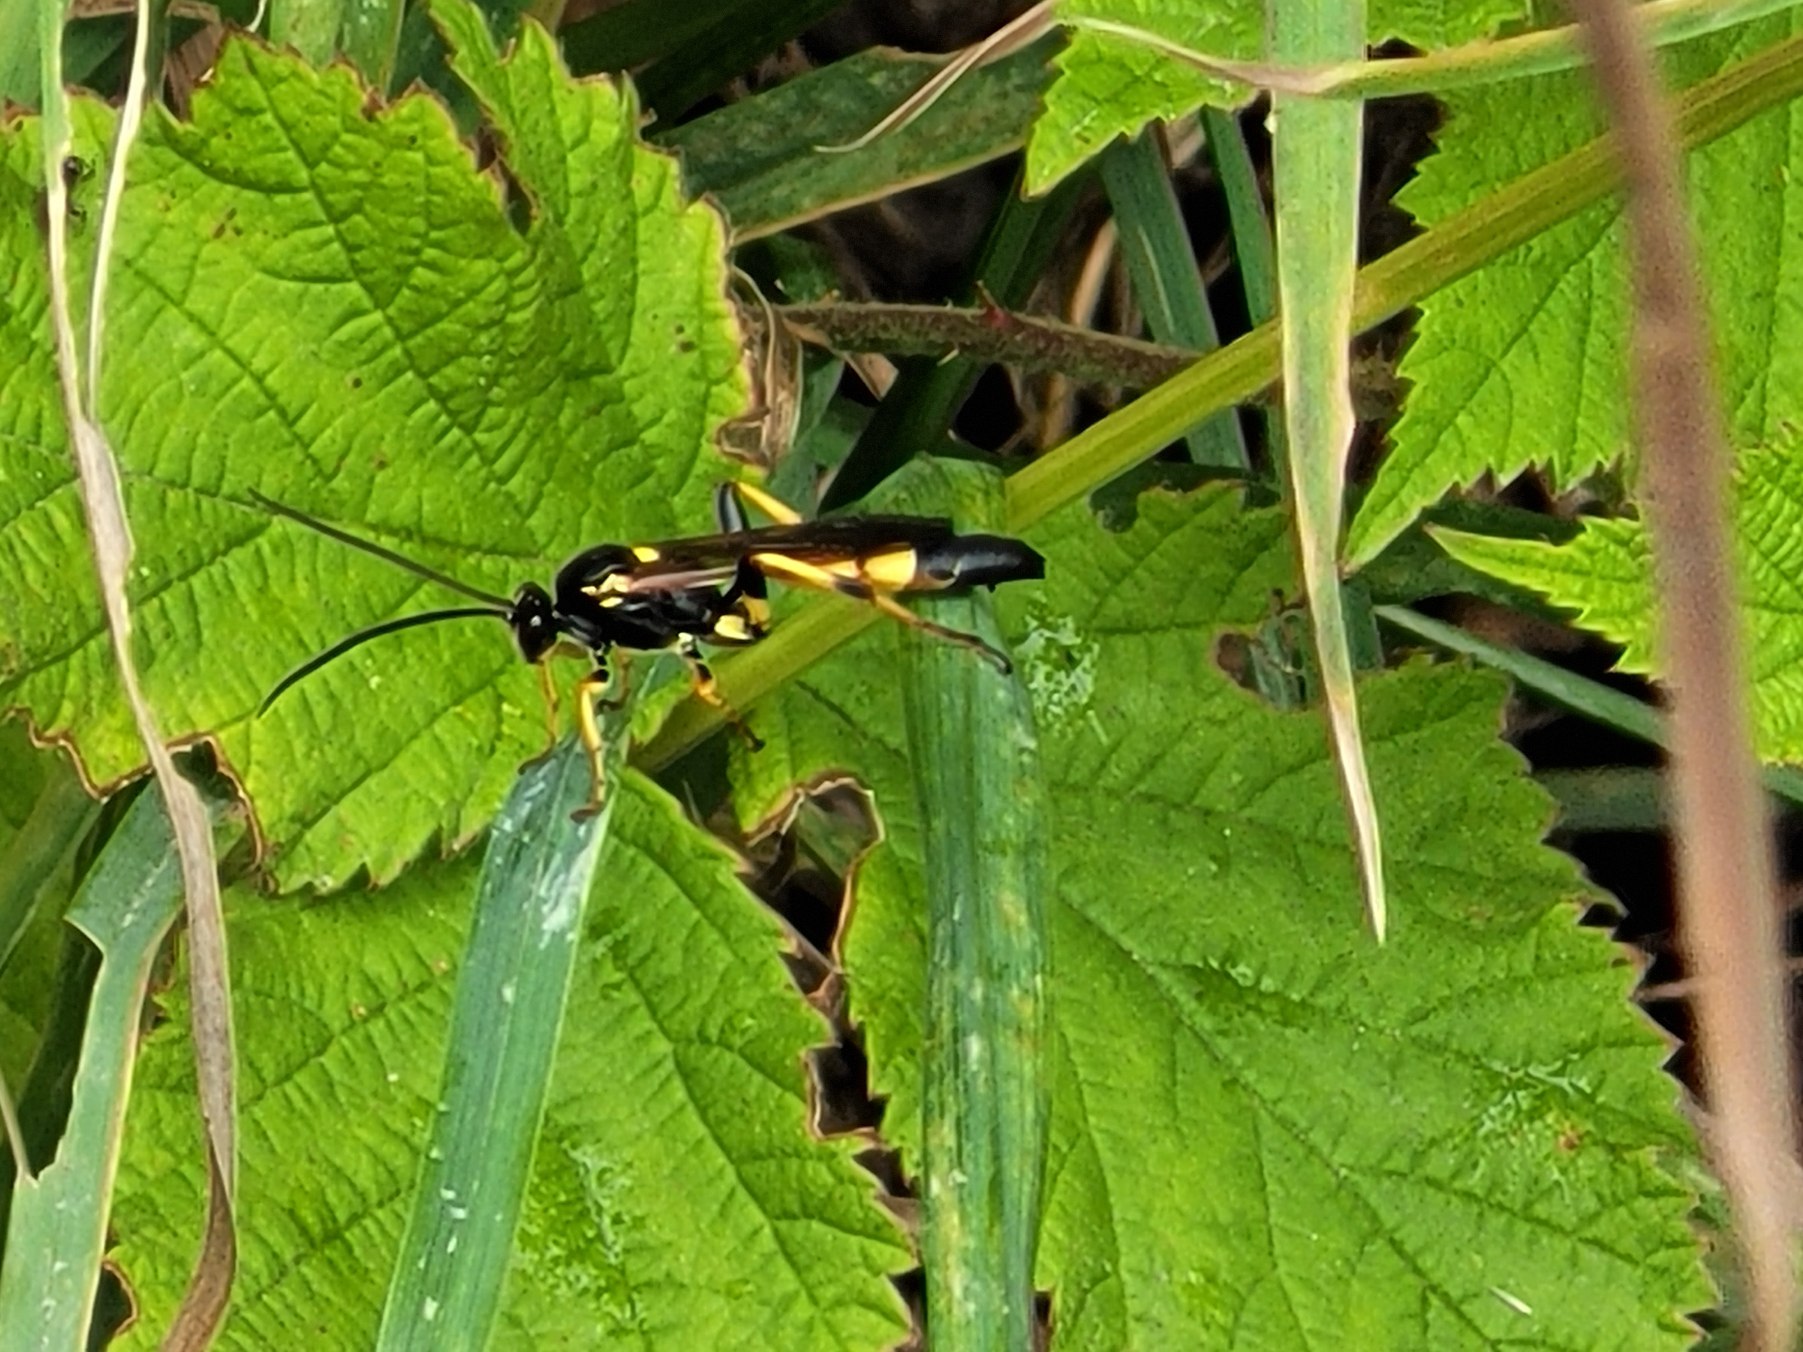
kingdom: Animalia
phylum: Arthropoda
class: Insecta
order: Hymenoptera
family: Ichneumonidae
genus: Ichneumon
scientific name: Ichneumon xanthorius
